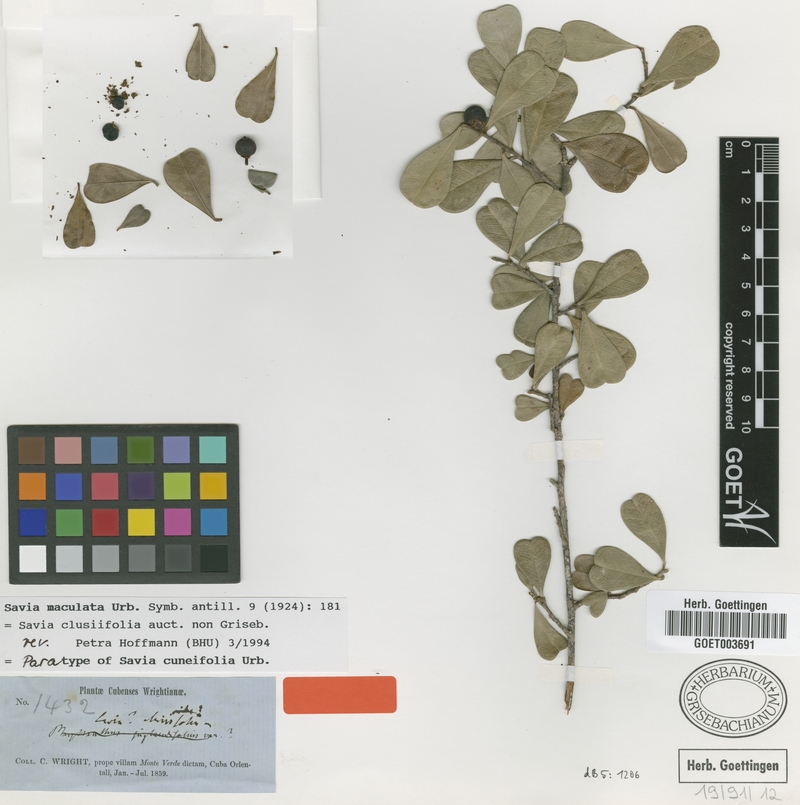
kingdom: Plantae
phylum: Tracheophyta
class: Magnoliopsida
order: Malpighiales
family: Phyllanthaceae
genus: Heterosavia
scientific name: Heterosavia maculata
